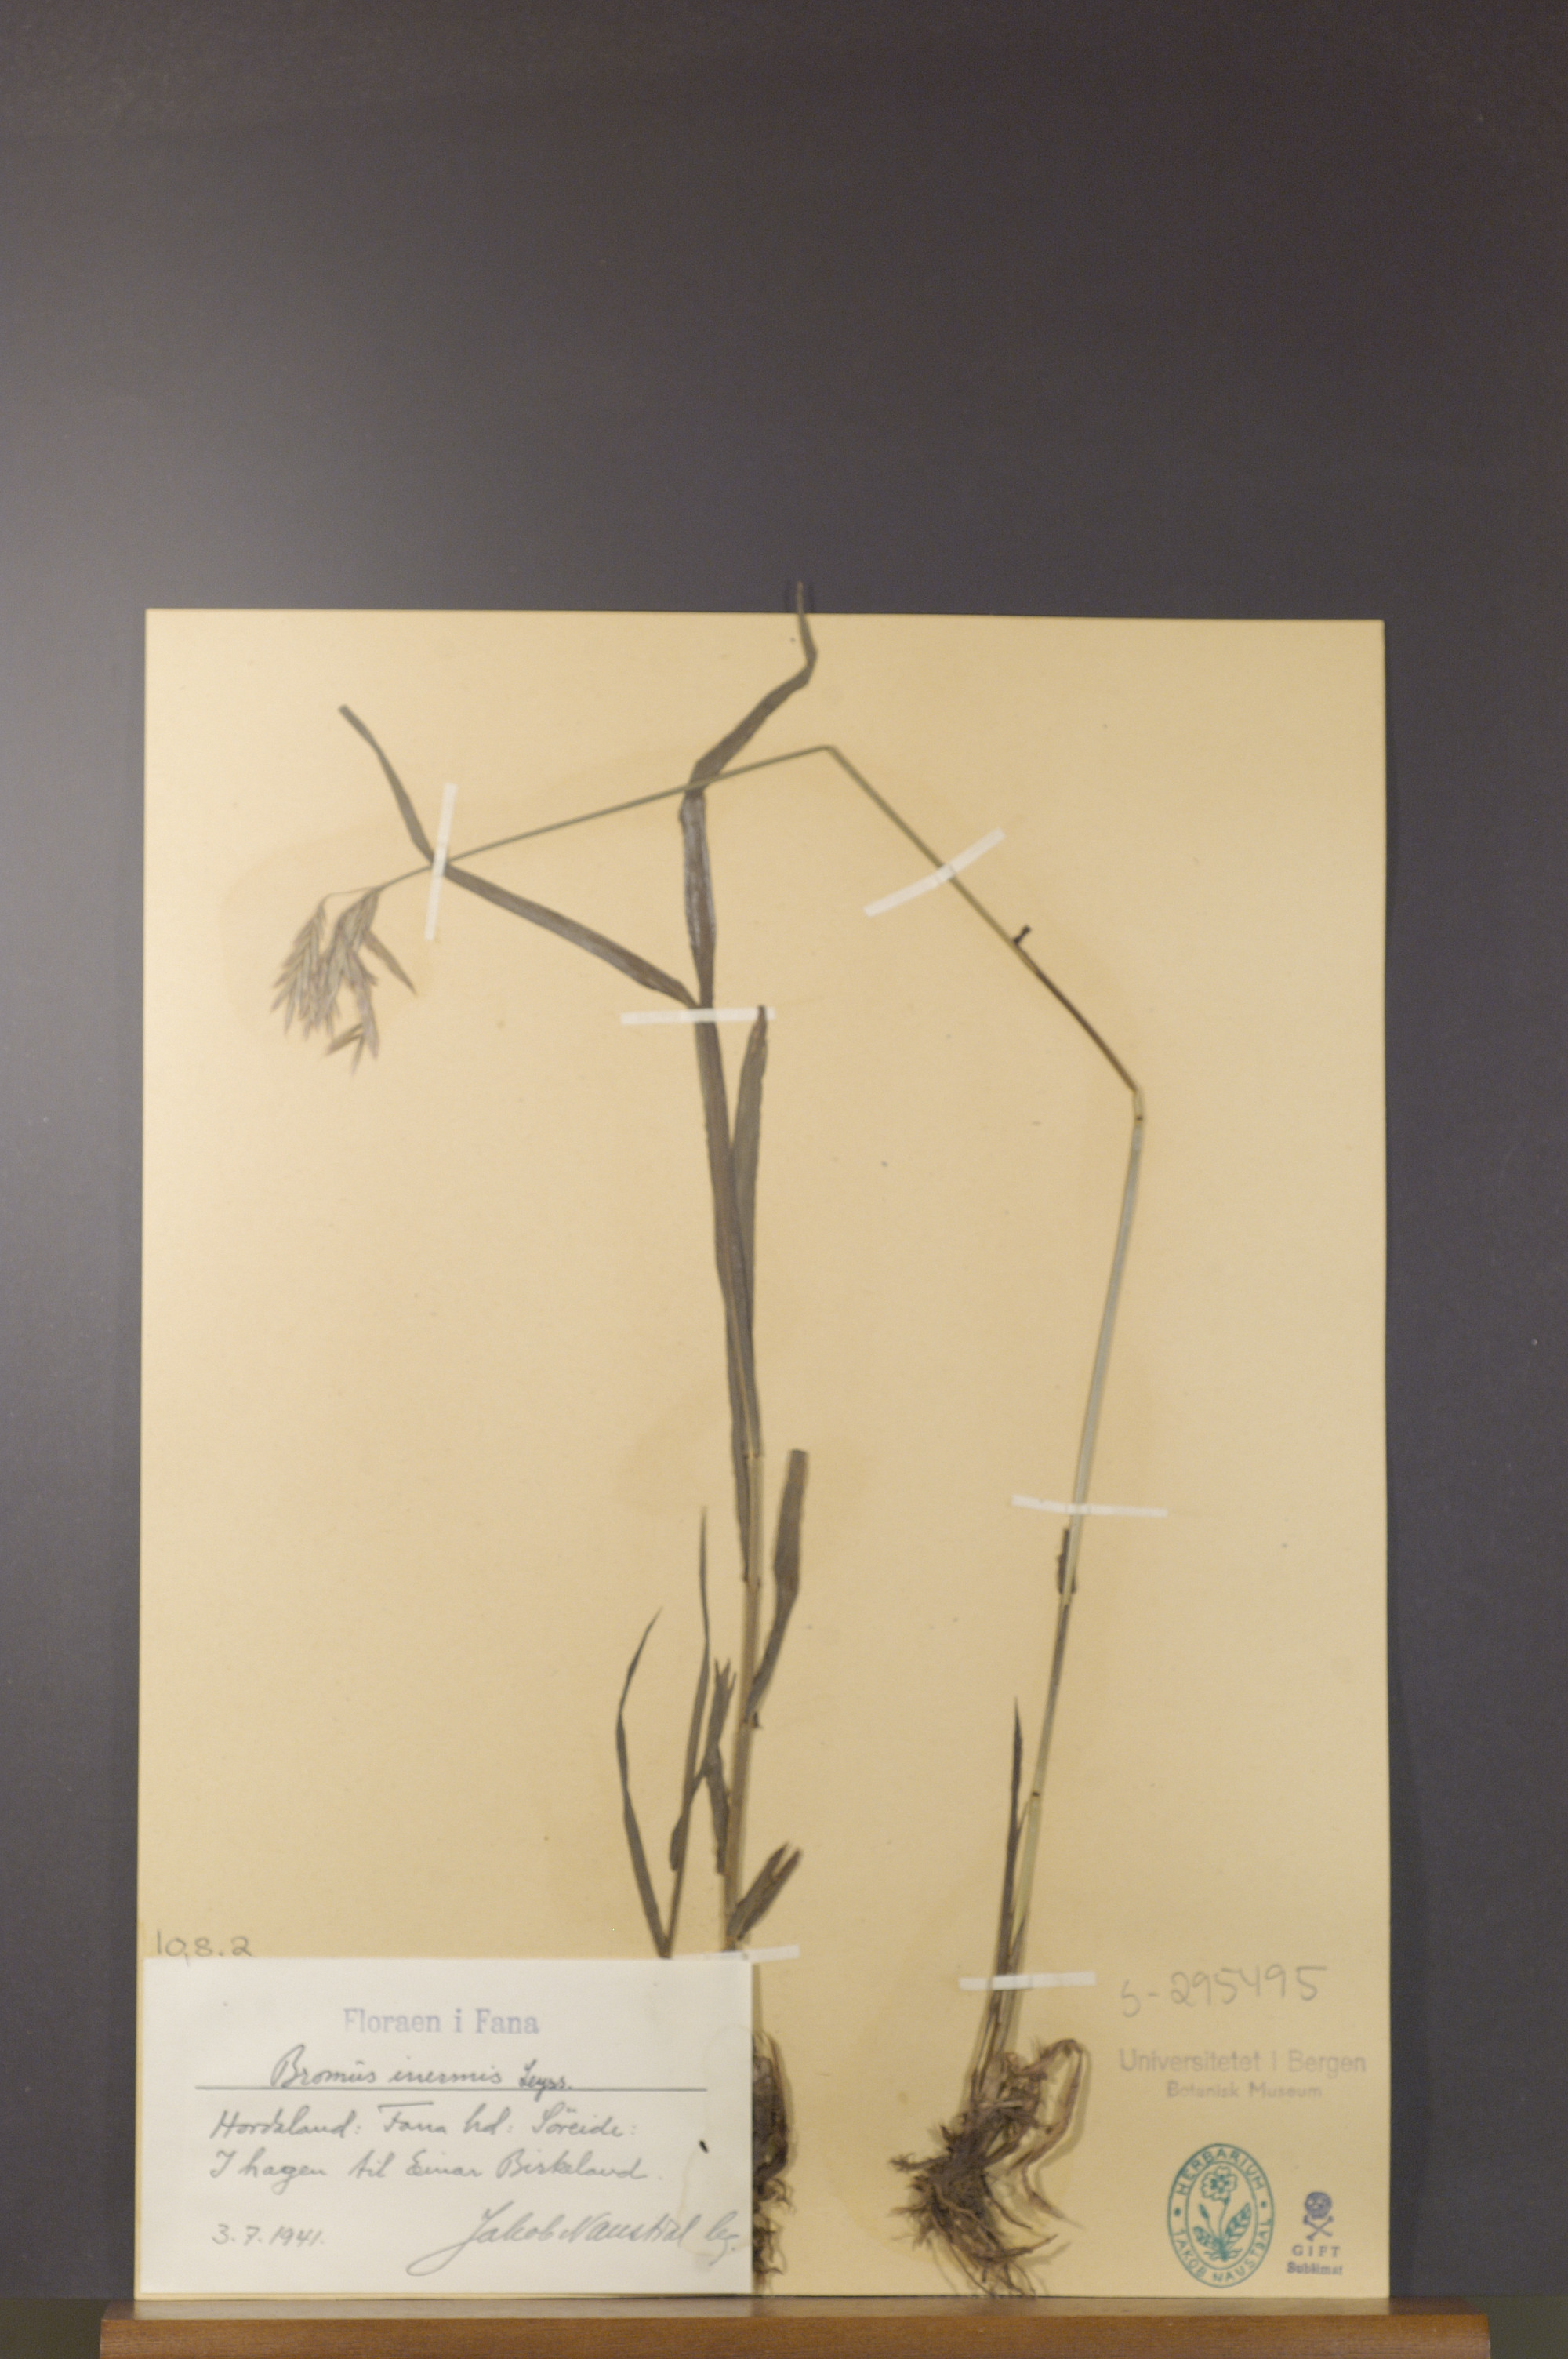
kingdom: Plantae
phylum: Tracheophyta
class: Liliopsida
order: Poales
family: Poaceae
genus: Bromus
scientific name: Bromus inermis
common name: Smooth brome
